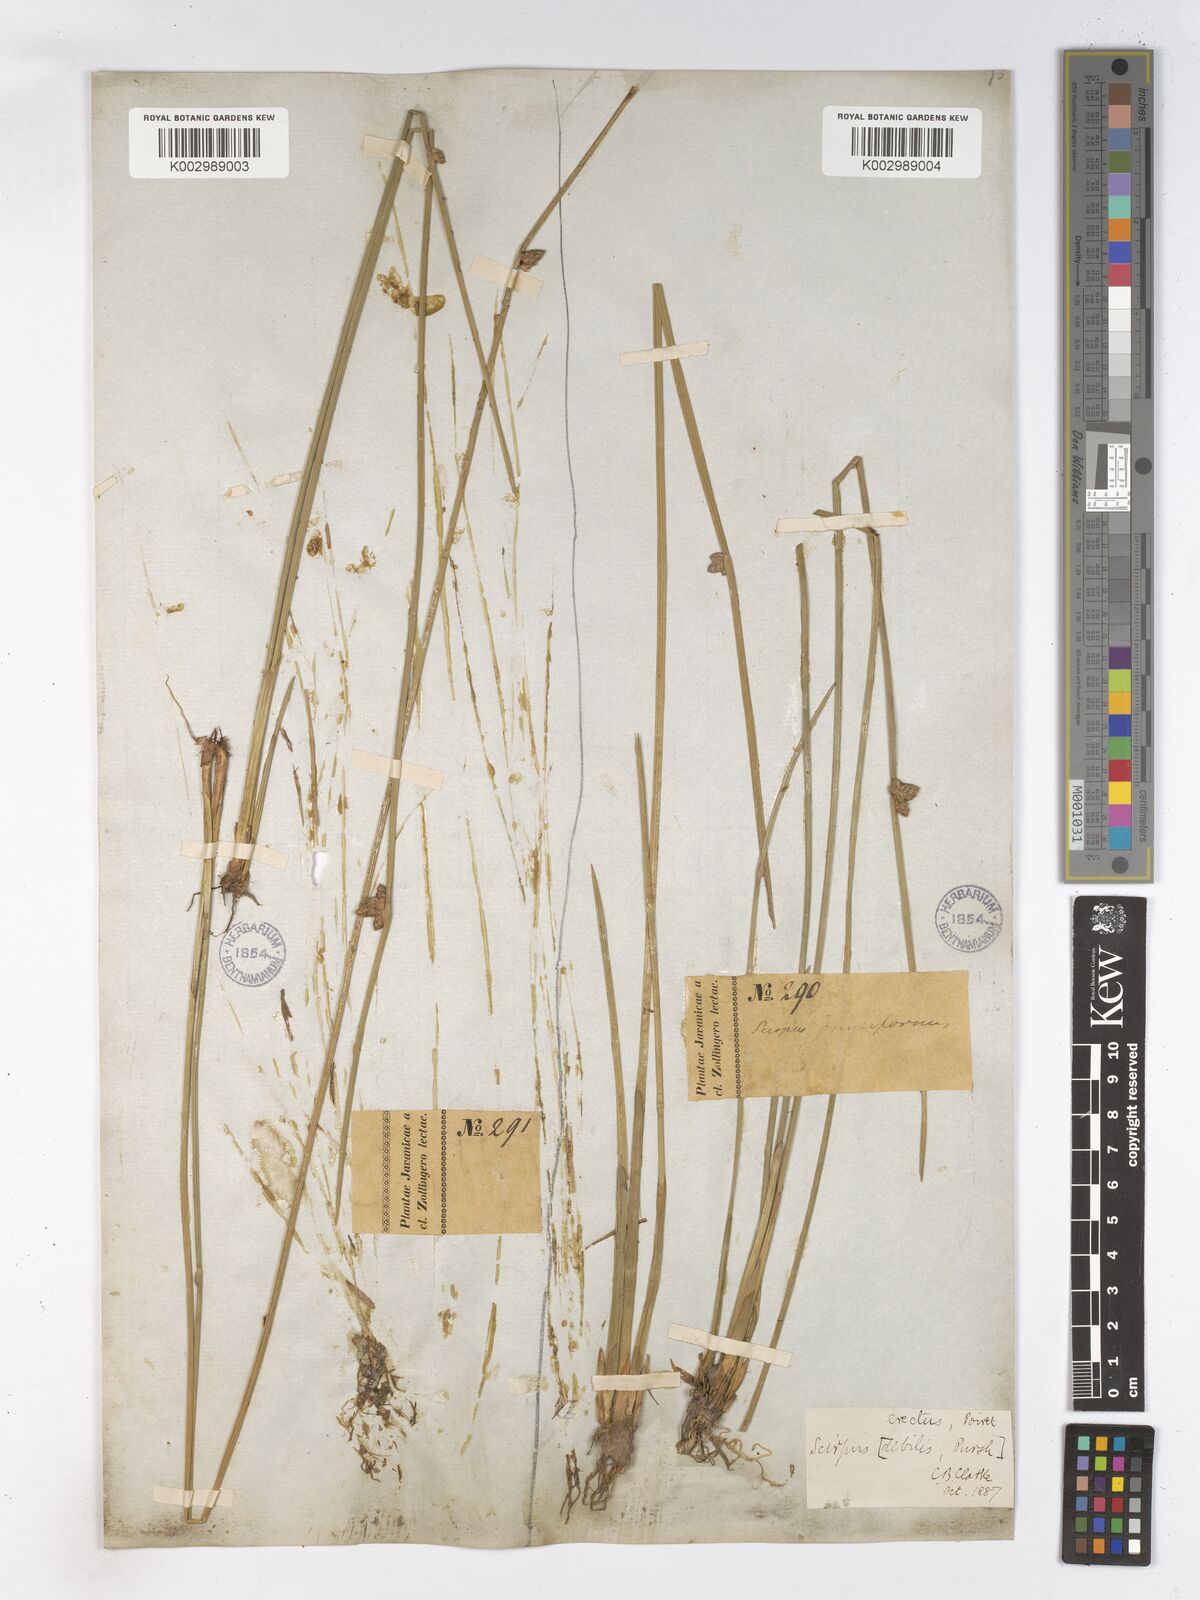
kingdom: Plantae
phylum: Tracheophyta
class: Liliopsida
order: Poales
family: Cyperaceae
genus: Schoenoplectiella
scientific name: Schoenoplectiella juncoides
